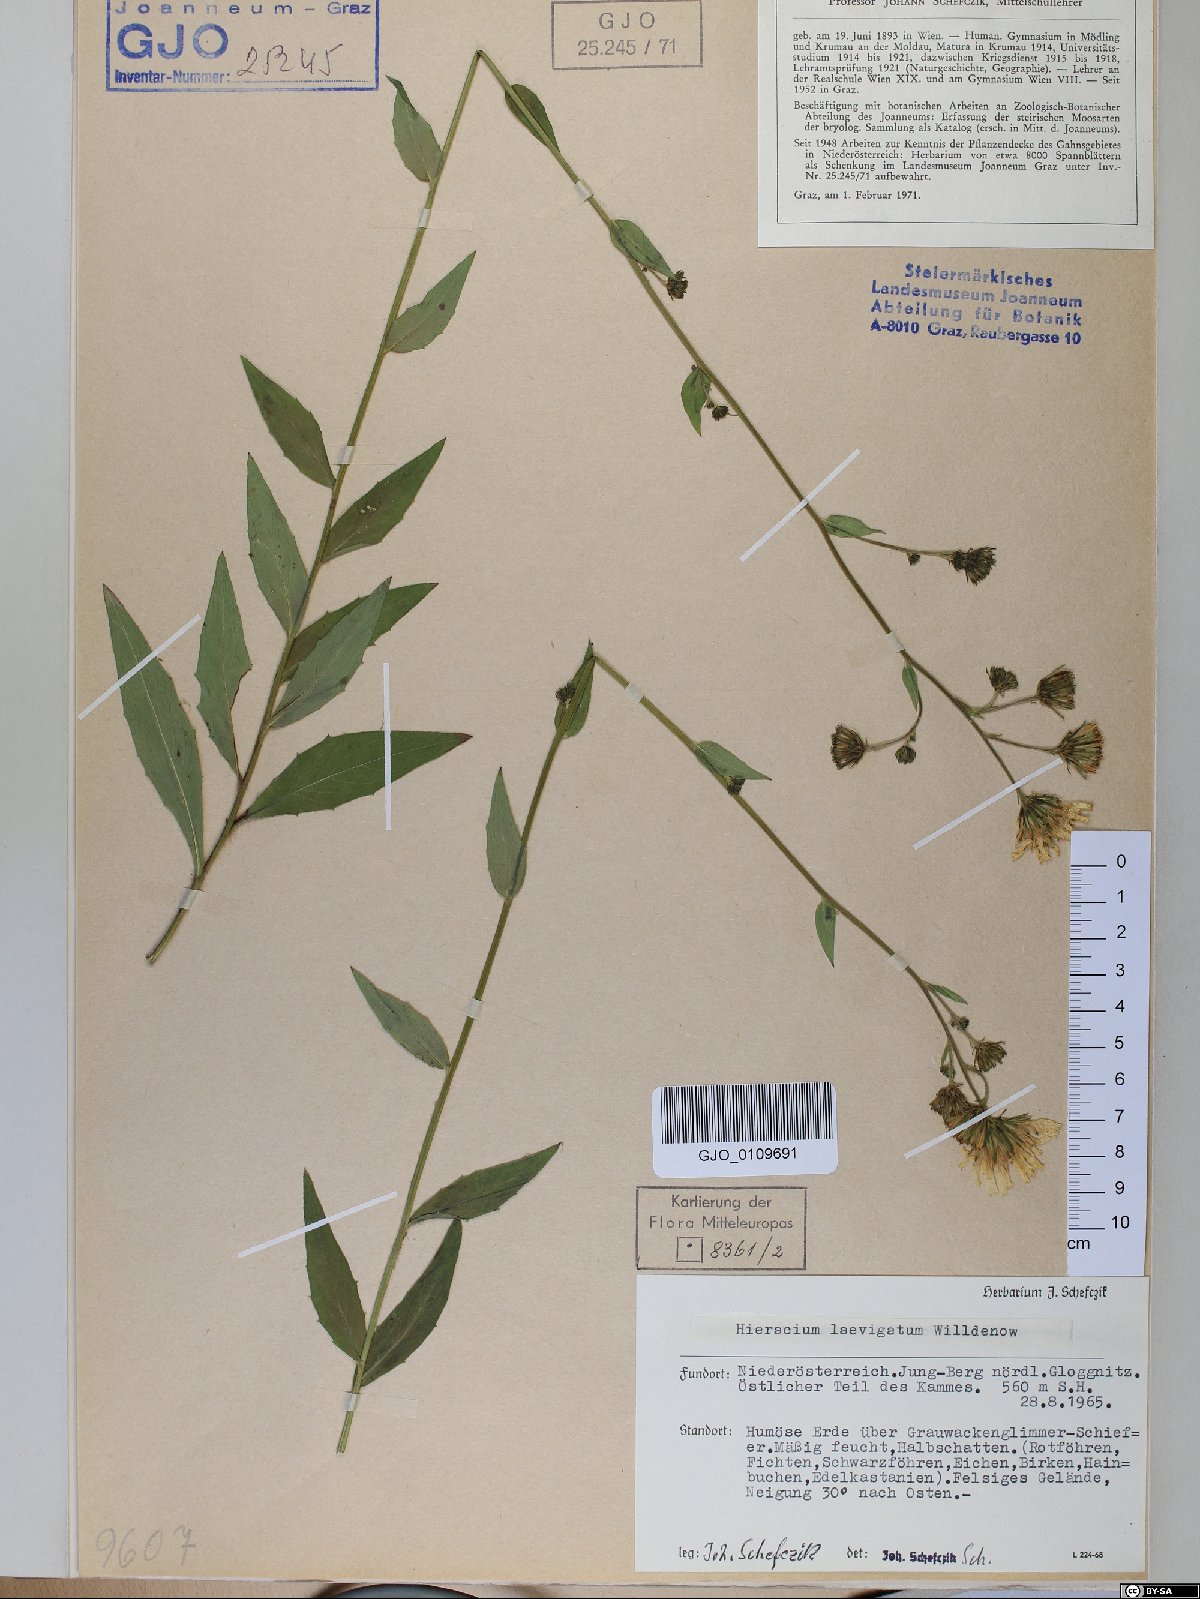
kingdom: Plantae
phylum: Tracheophyta
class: Magnoliopsida
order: Asterales
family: Asteraceae
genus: Hieracium
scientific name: Hieracium laevigatum
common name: Smooth hawkweed
